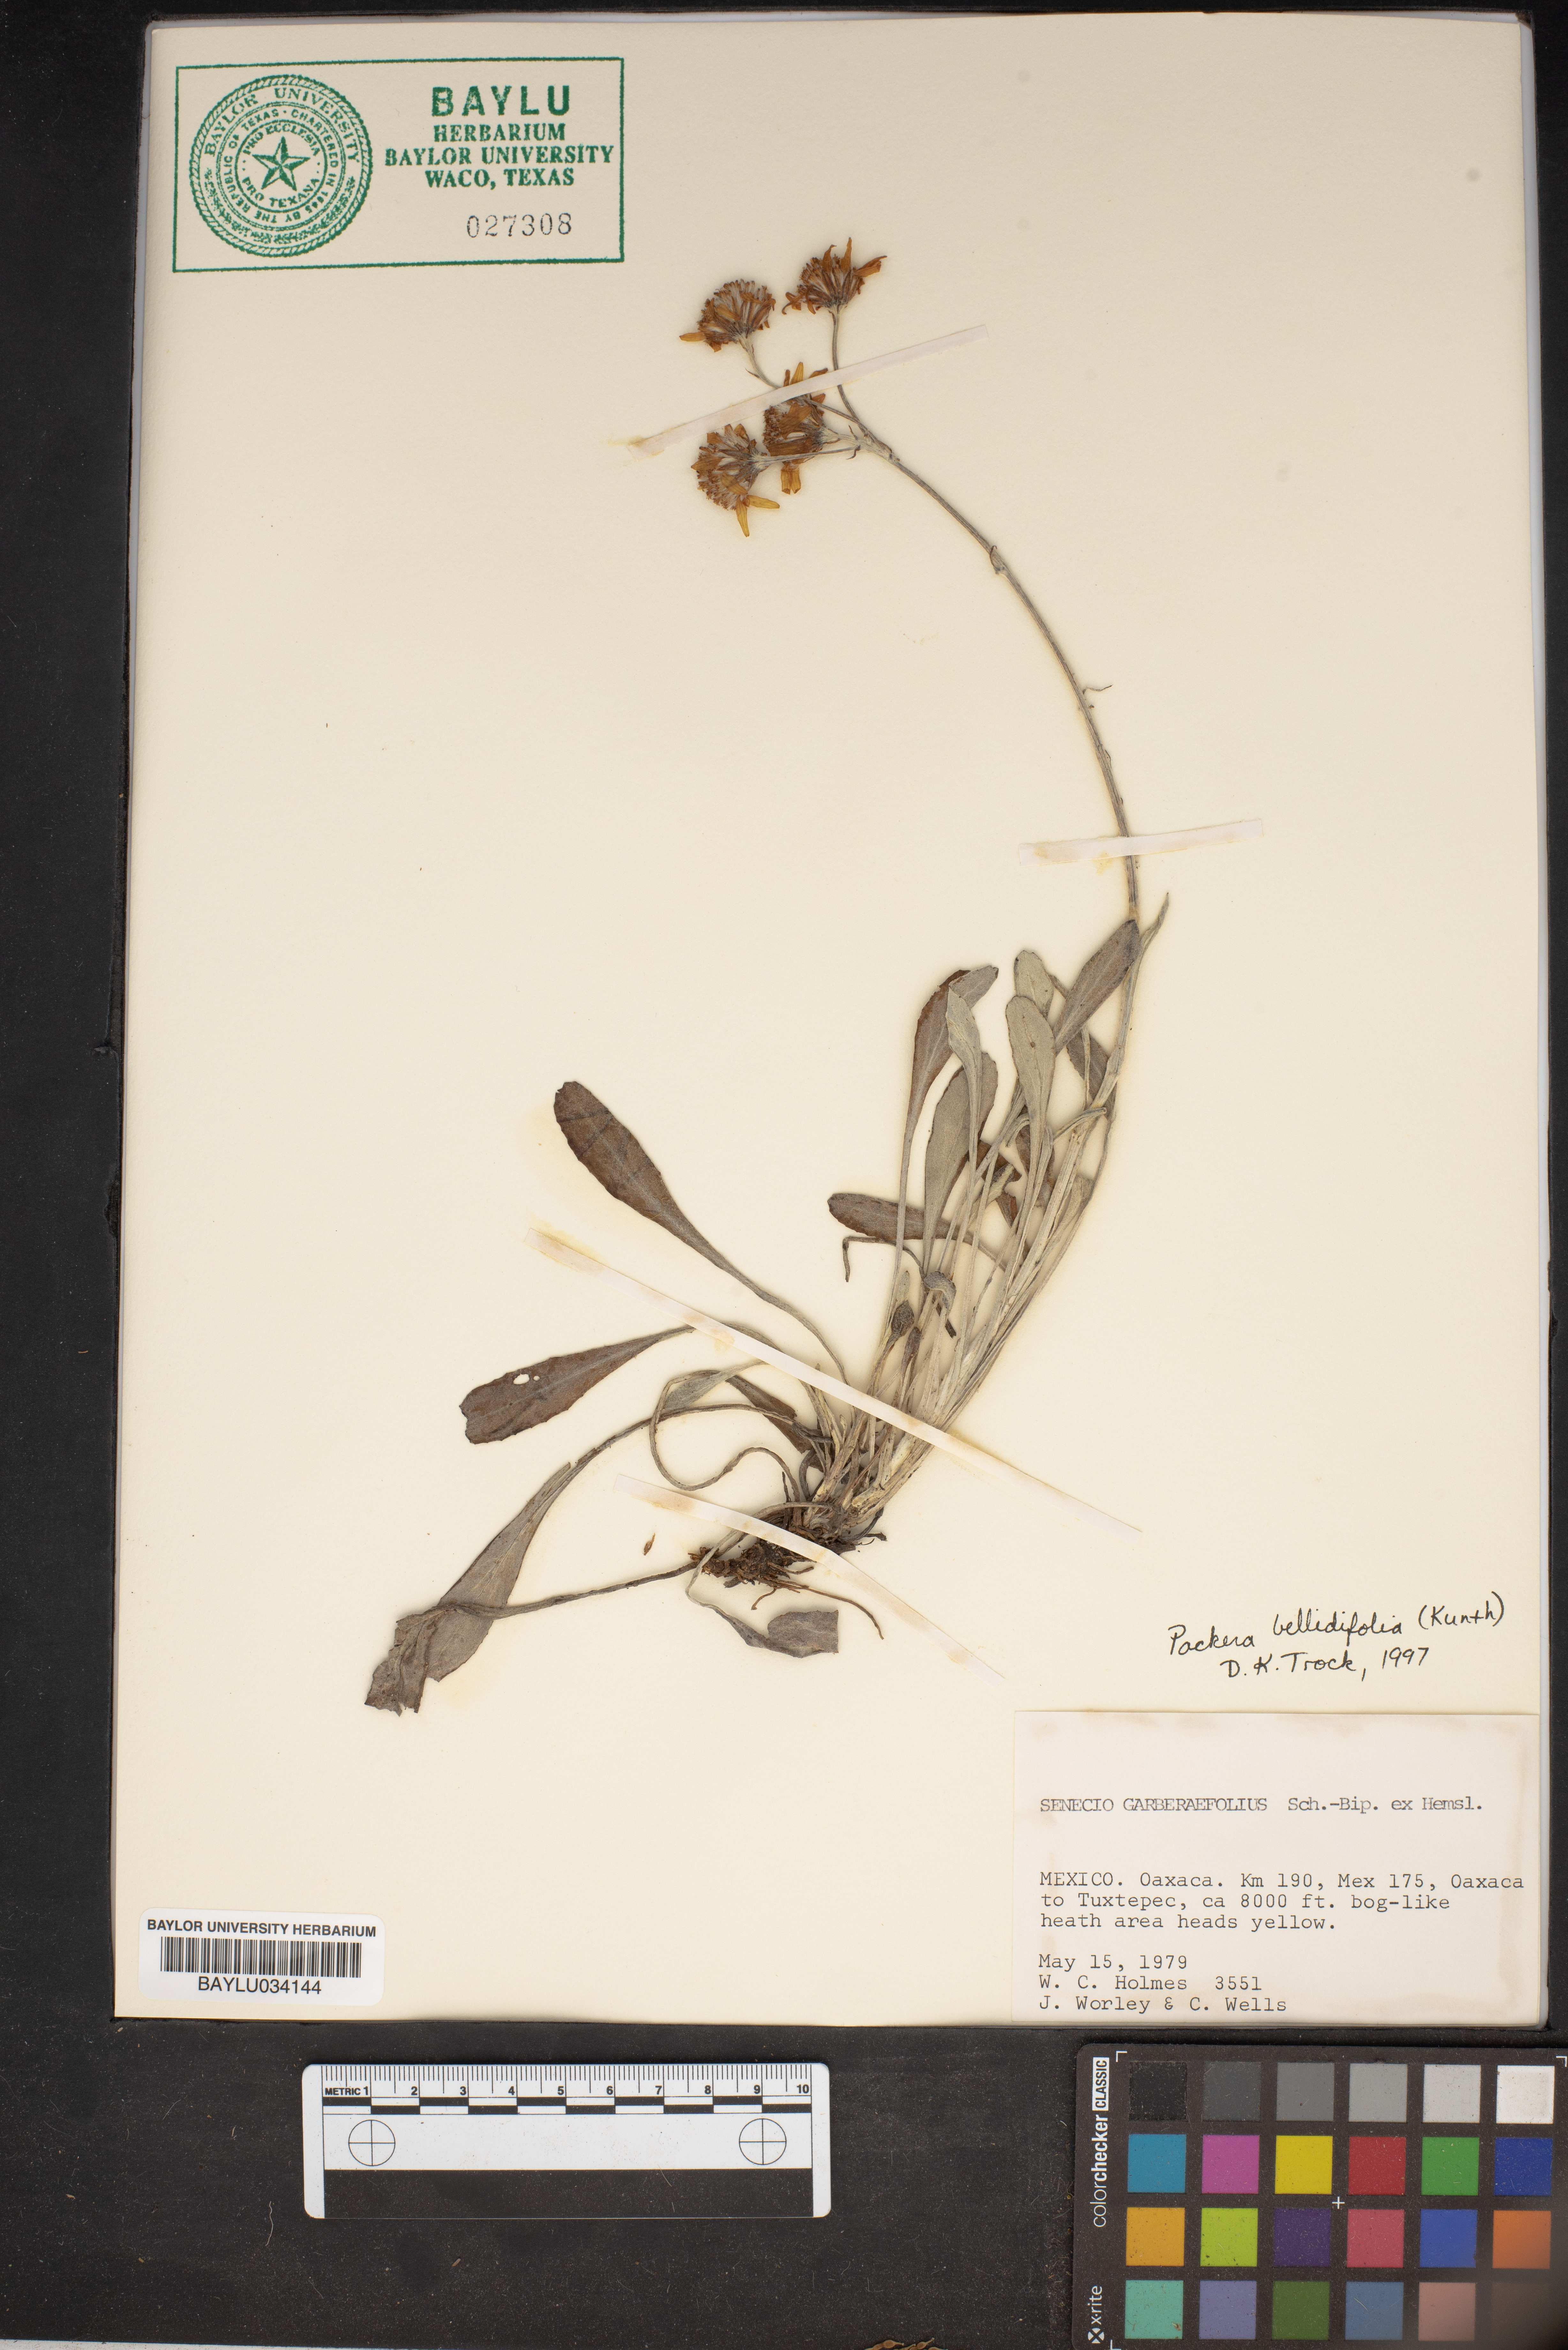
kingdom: Plantae
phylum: Tracheophyta
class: Magnoliopsida
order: Asterales
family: Asteraceae
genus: Packera
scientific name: Packera bellidifolia
